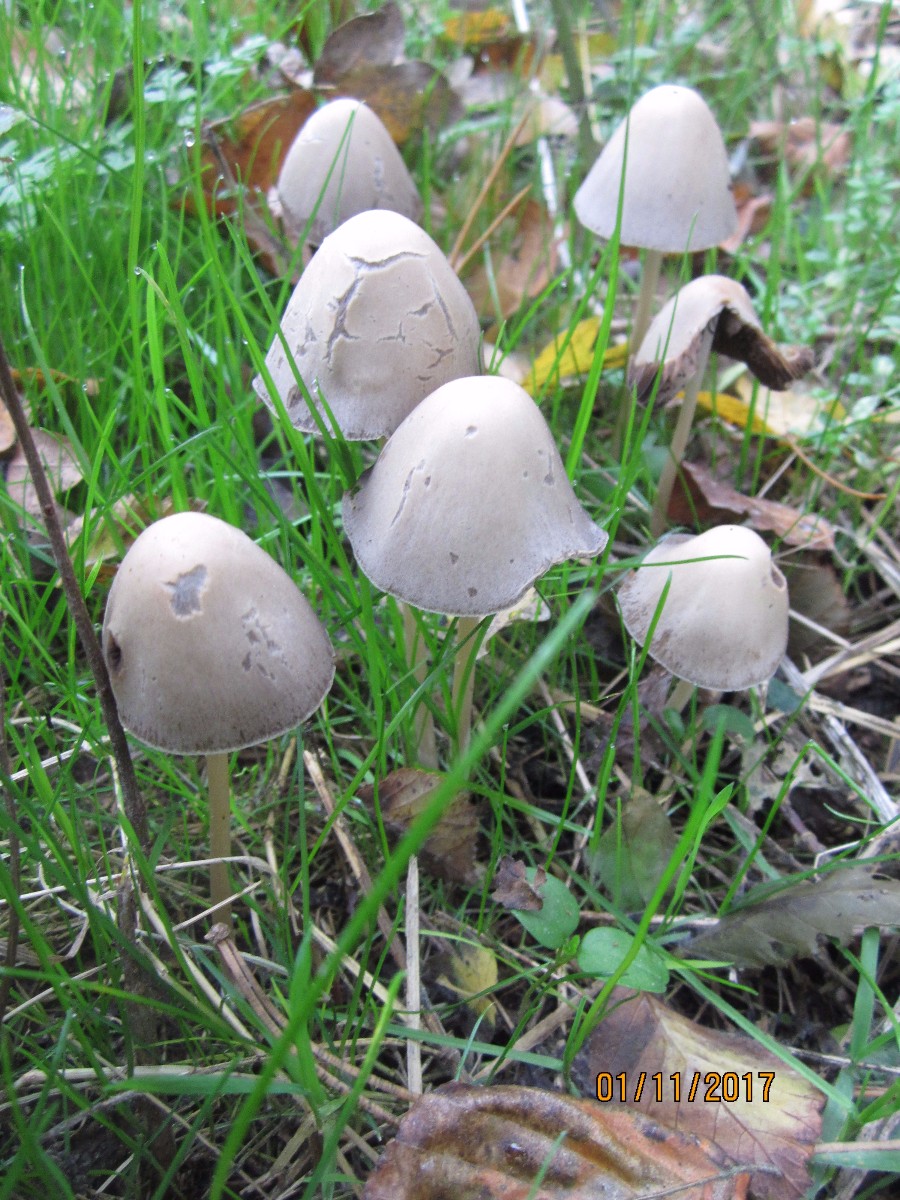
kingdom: Fungi
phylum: Basidiomycota
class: Agaricomycetes
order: Agaricales
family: Psathyrellaceae
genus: Parasola
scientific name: Parasola conopilea
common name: kegle-hjulhat
